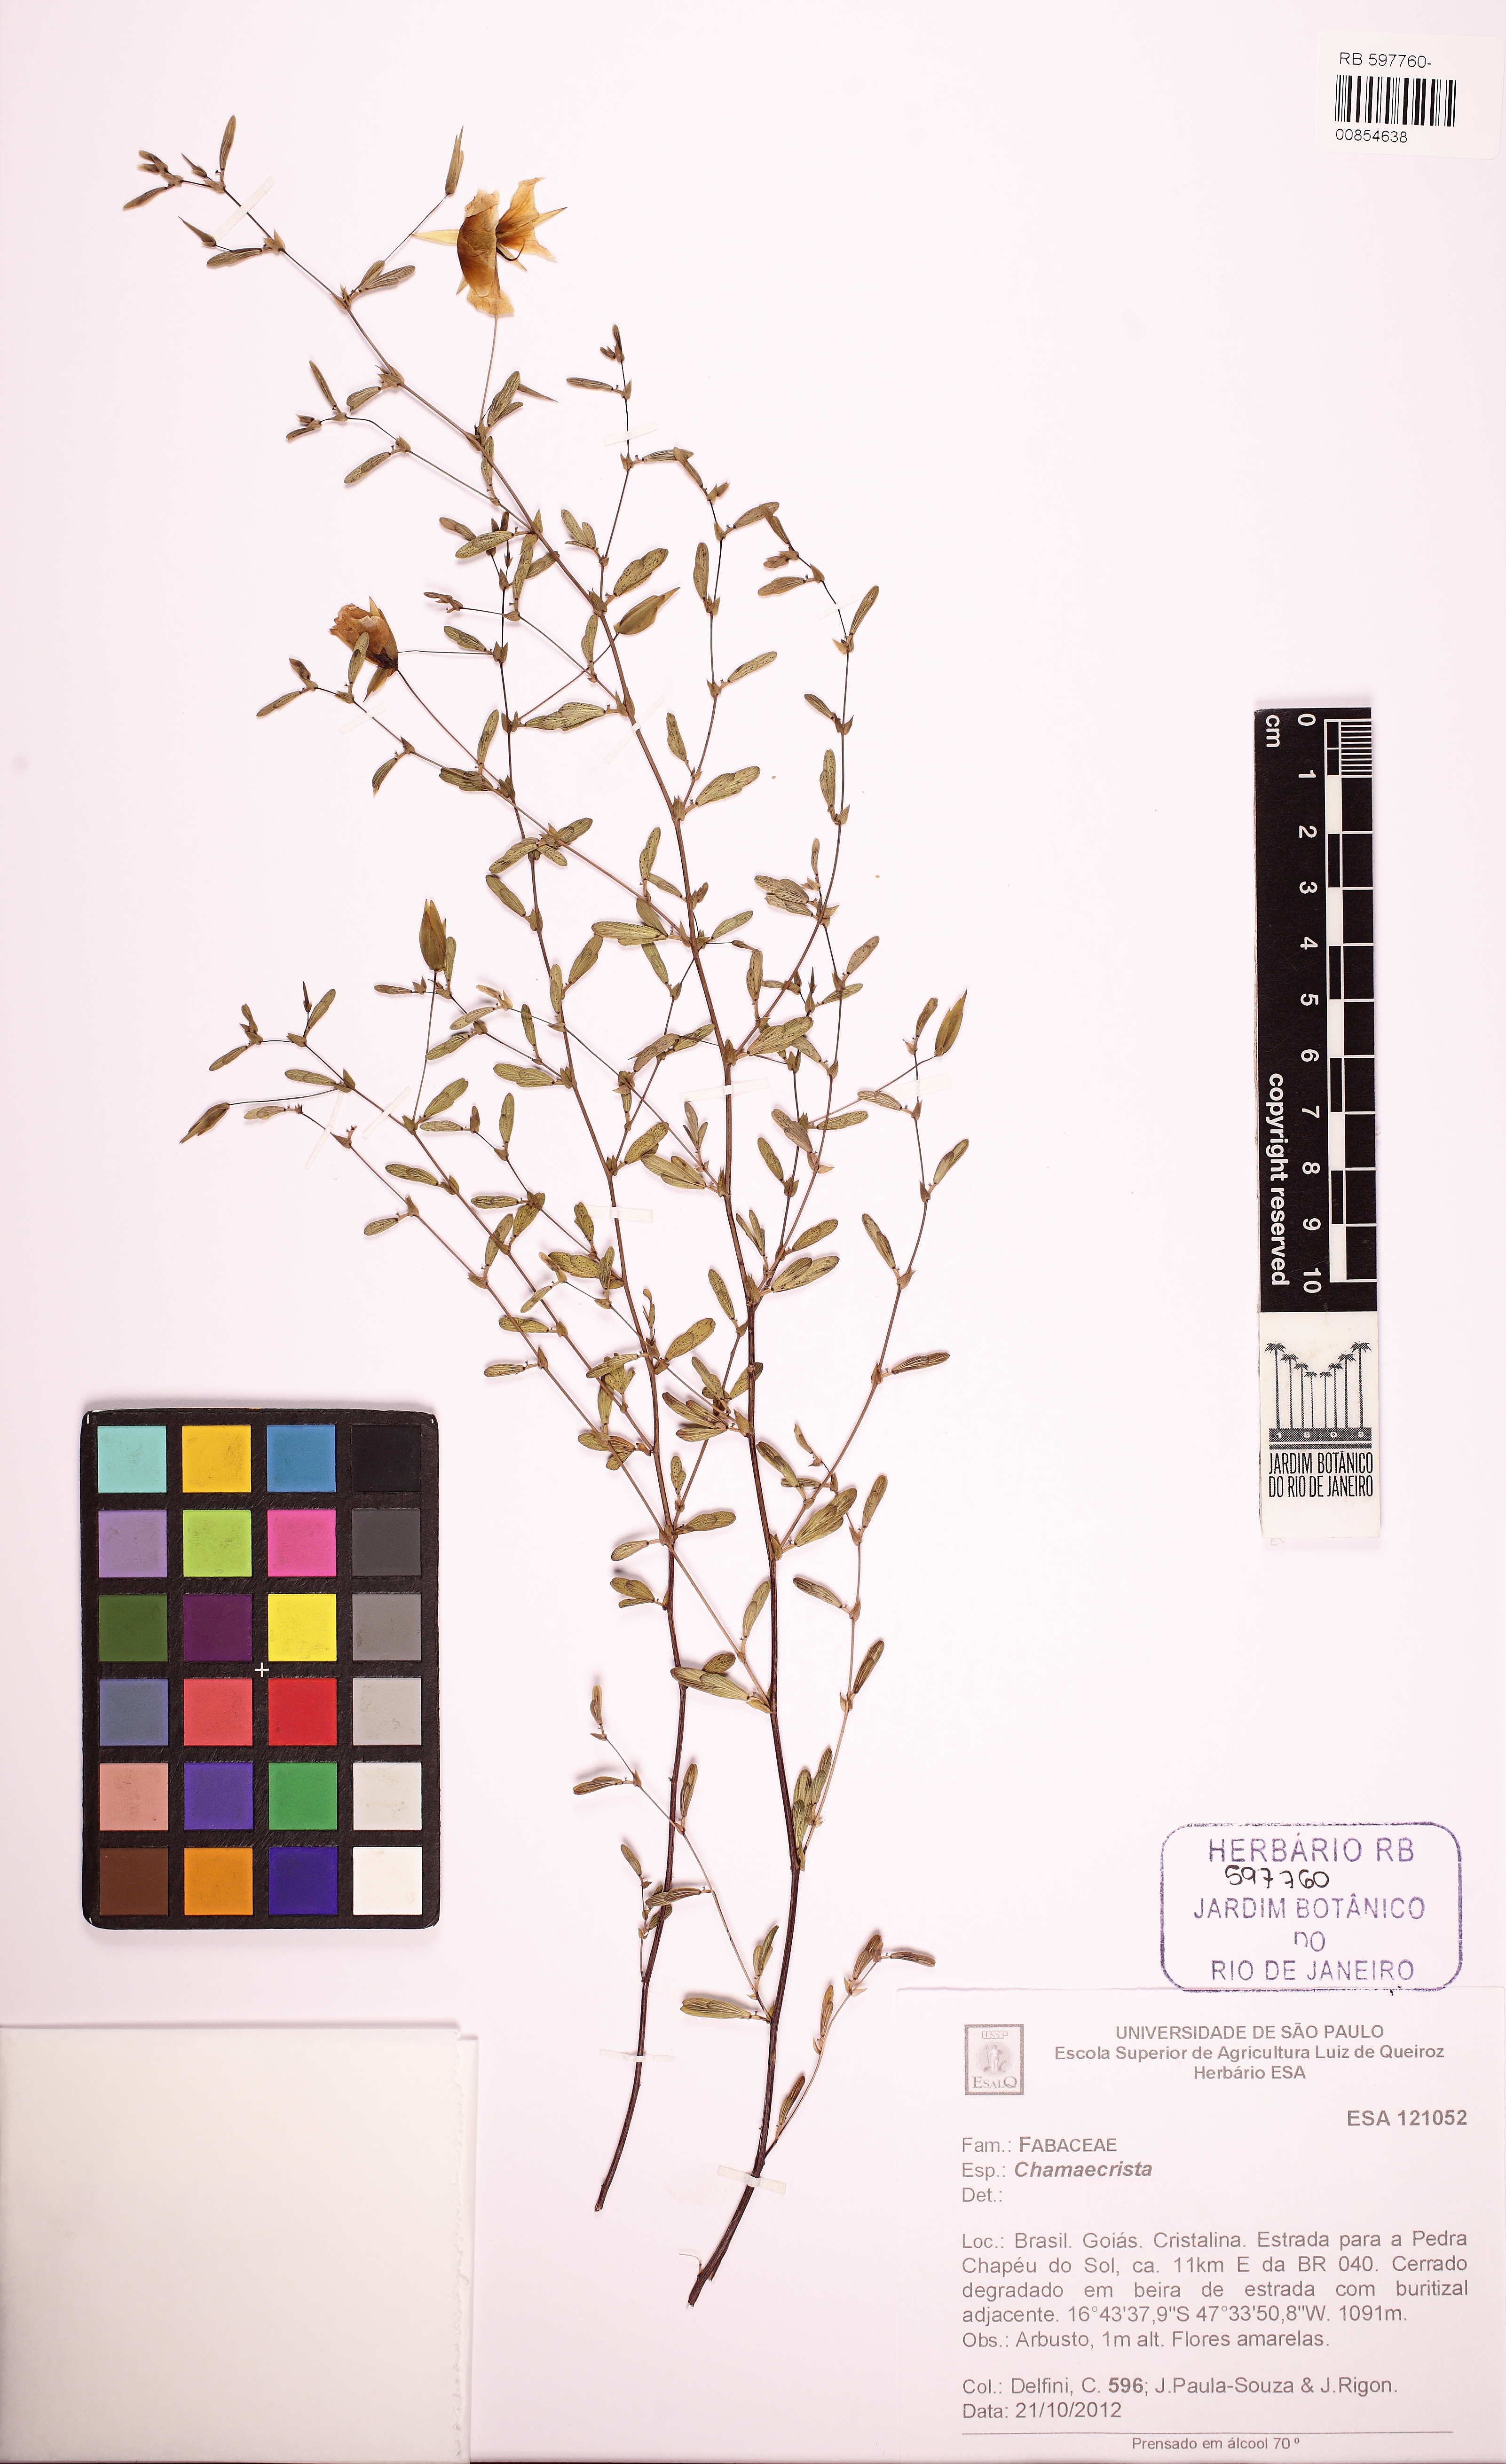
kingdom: Plantae
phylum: Tracheophyta
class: Magnoliopsida
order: Fabales
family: Fabaceae
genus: Chamaecrista
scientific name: Chamaecrista
